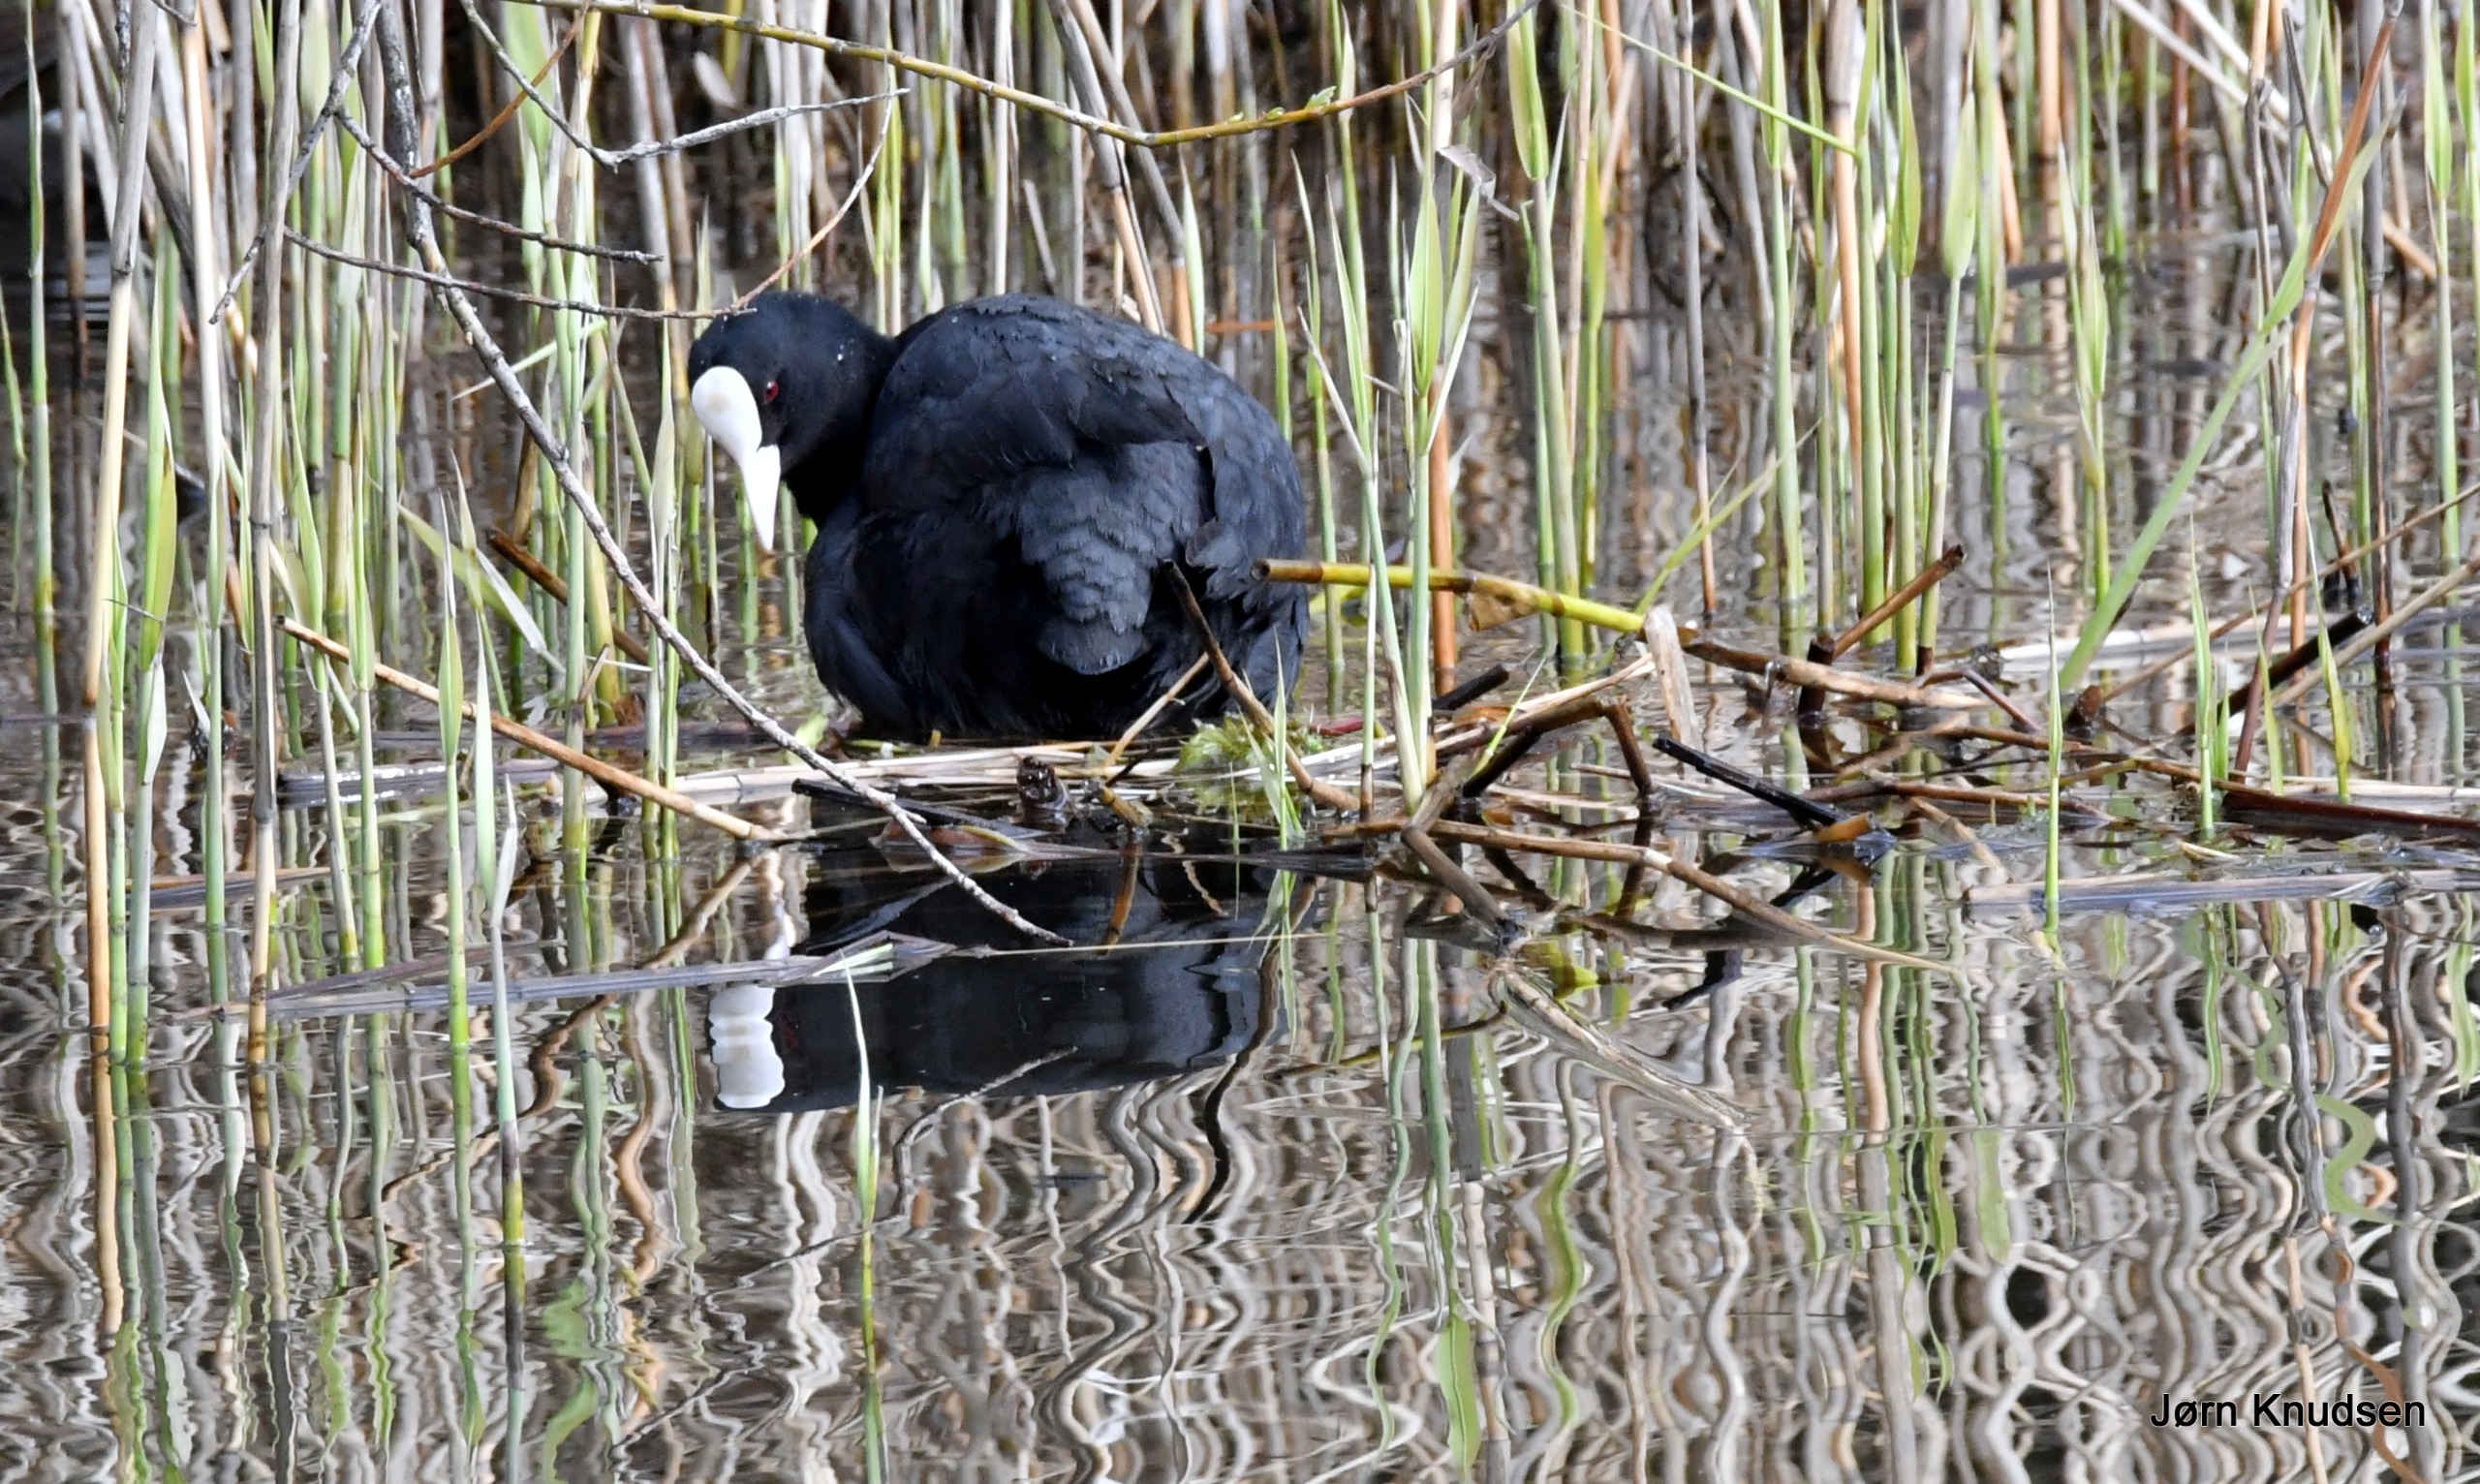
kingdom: Animalia
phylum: Chordata
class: Aves
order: Gruiformes
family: Rallidae
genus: Fulica
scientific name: Fulica atra
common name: Blishøne
